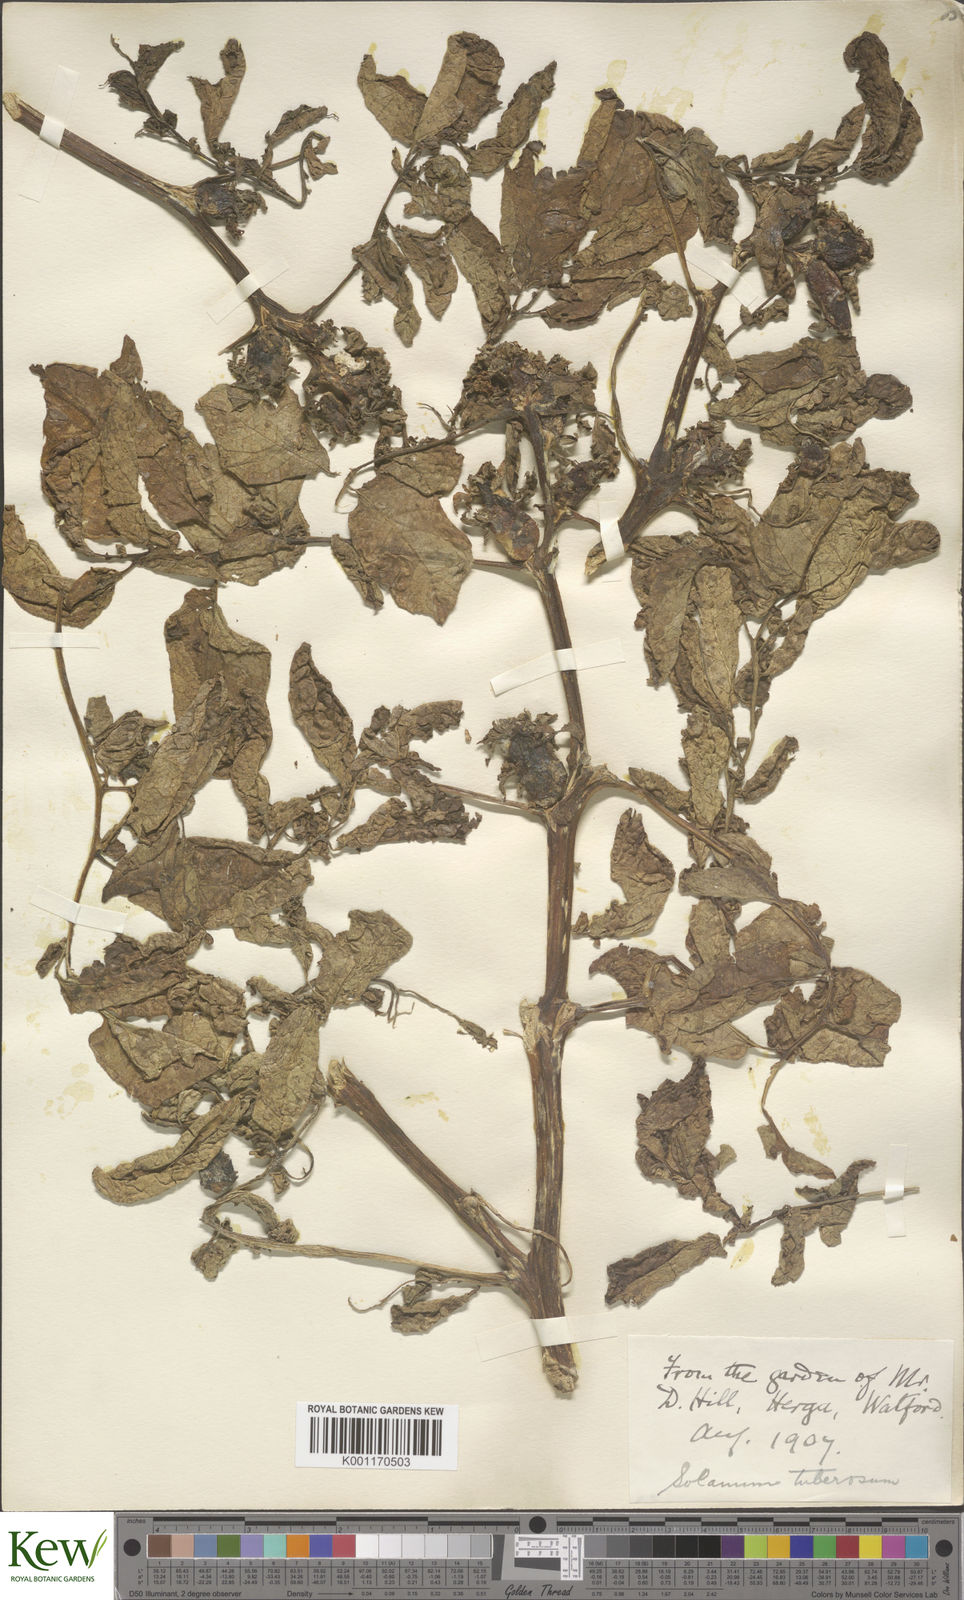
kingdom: Plantae
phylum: Tracheophyta
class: Magnoliopsida
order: Solanales
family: Solanaceae
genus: Solanum
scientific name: Solanum tuberosum
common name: Potato
